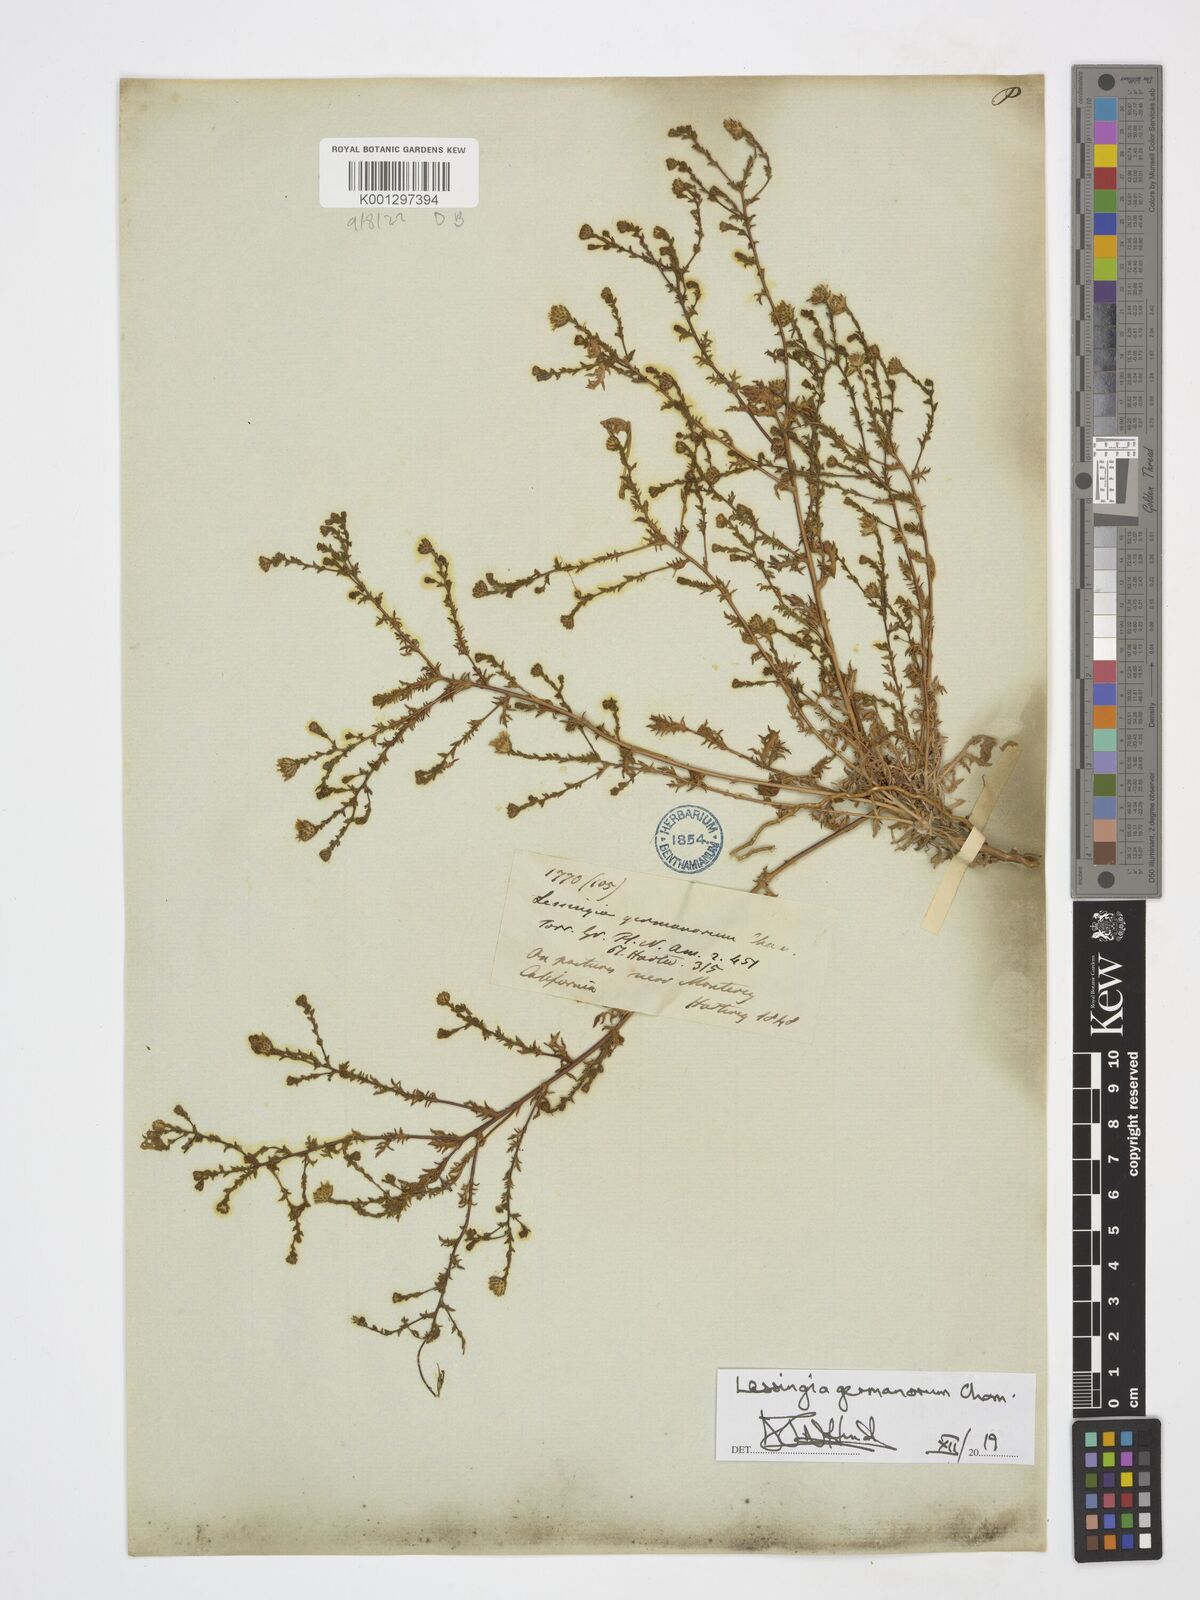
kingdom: Plantae
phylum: Tracheophyta
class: Magnoliopsida
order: Asterales
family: Asteraceae
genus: Lessingia
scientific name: Lessingia germanorum
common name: San francisco lessingia
